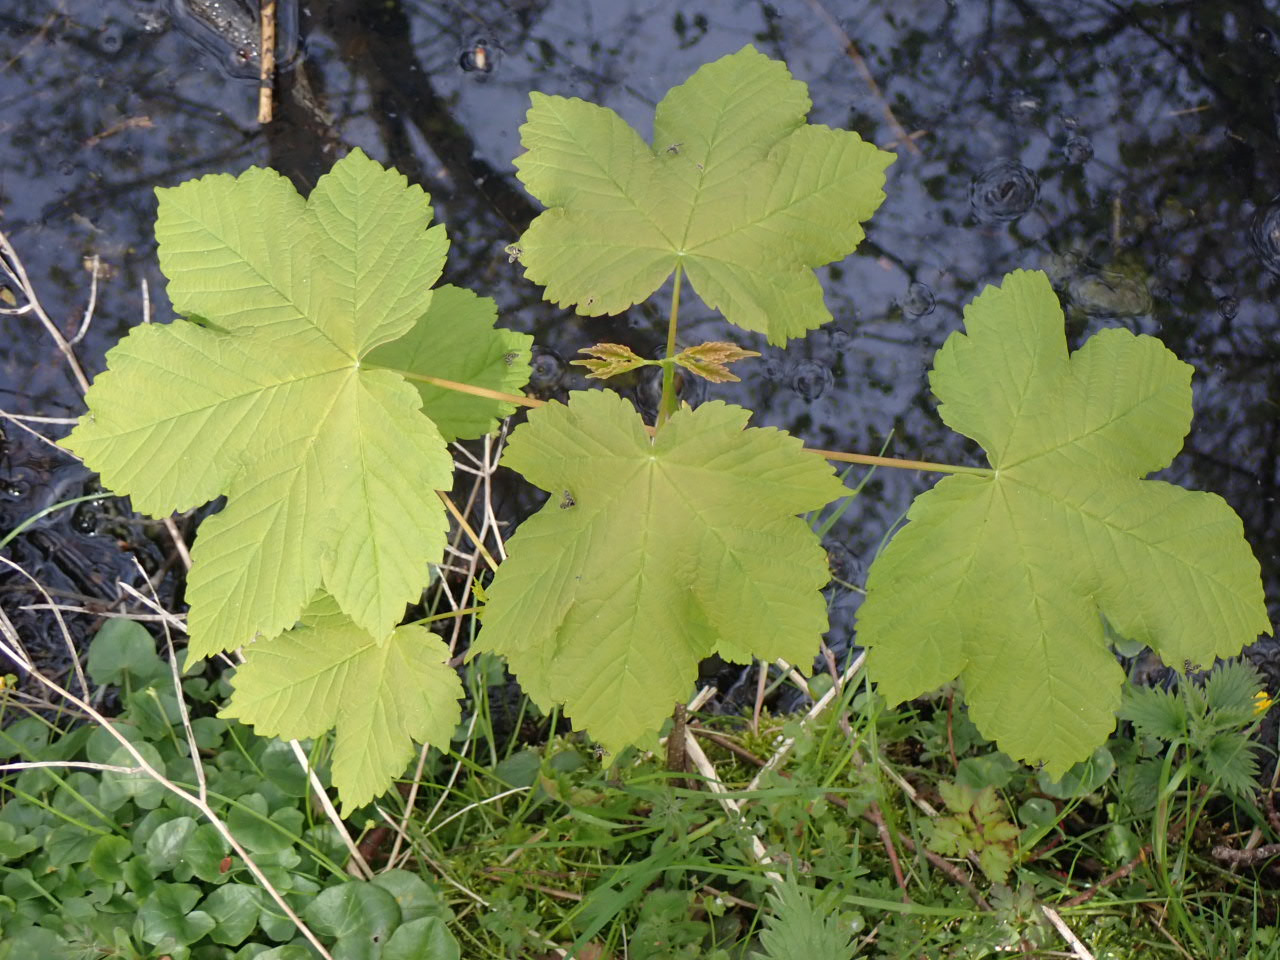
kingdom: Plantae
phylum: Tracheophyta
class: Magnoliopsida
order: Sapindales
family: Sapindaceae
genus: Acer
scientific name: Acer pseudoplatanus
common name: Ahorn
